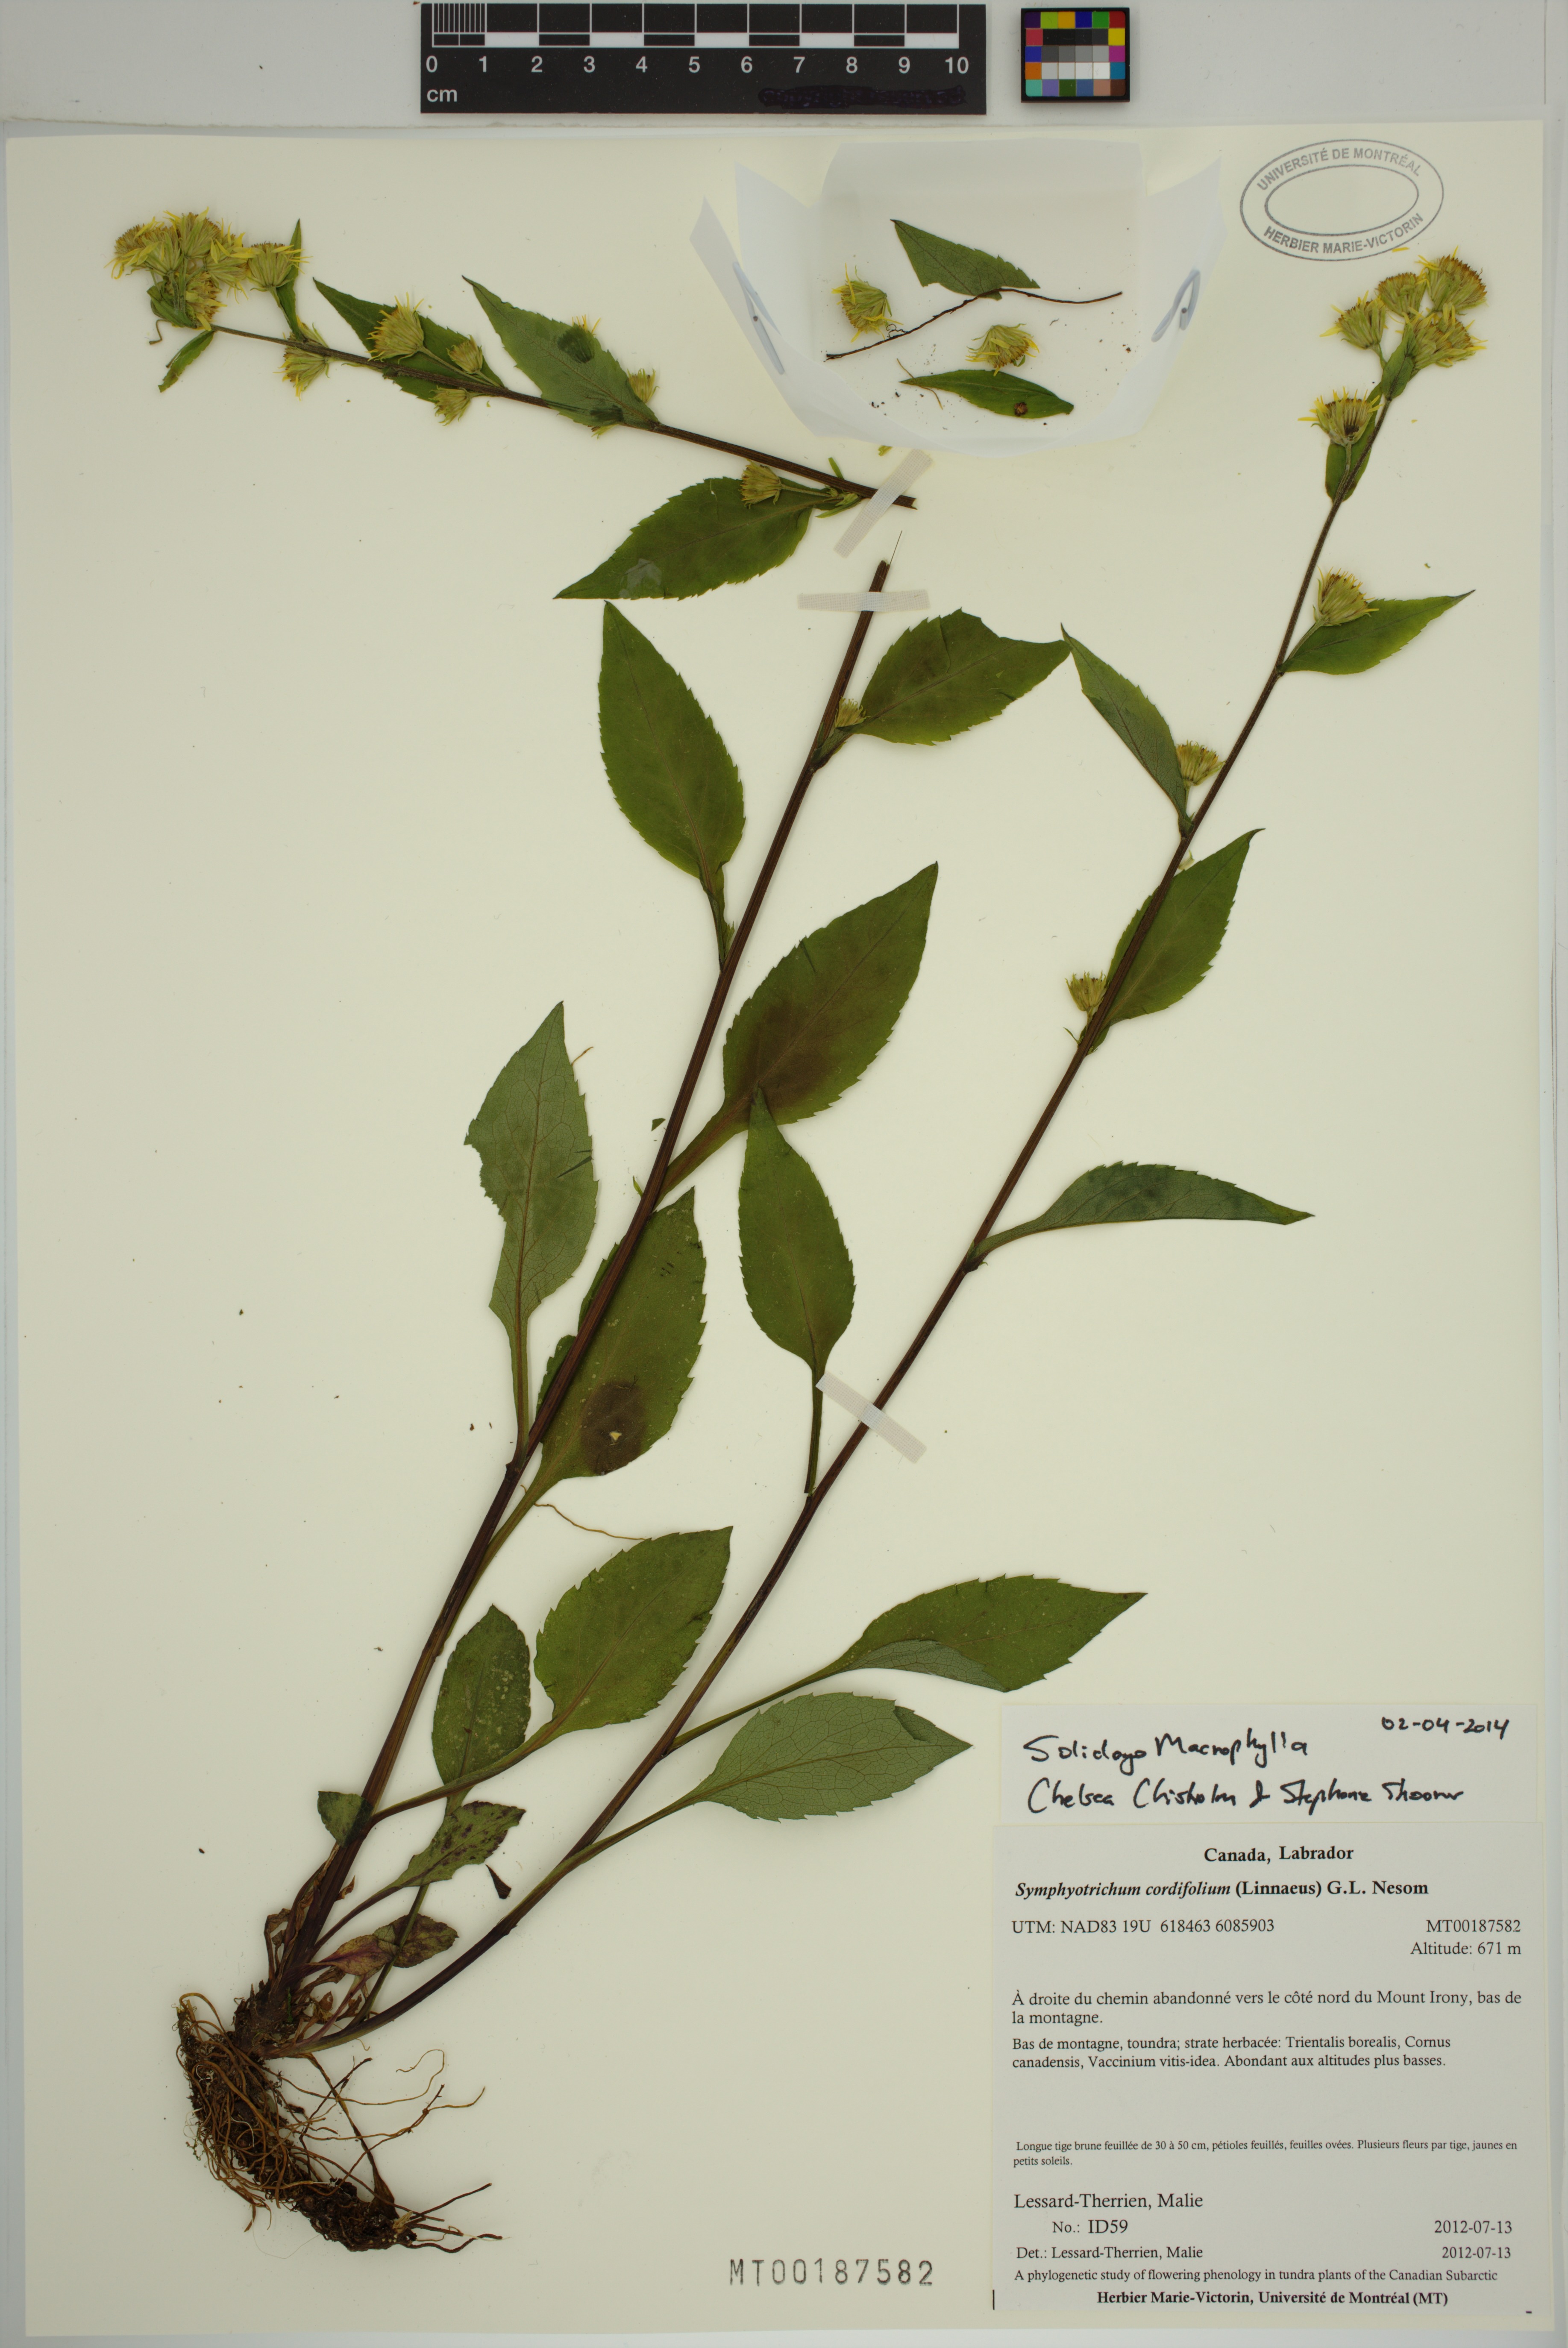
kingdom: Plantae
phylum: Tracheophyta
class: Magnoliopsida
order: Asterales
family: Asteraceae
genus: Solidago
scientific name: Solidago macrophylla
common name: Large-leaved goldenrod
